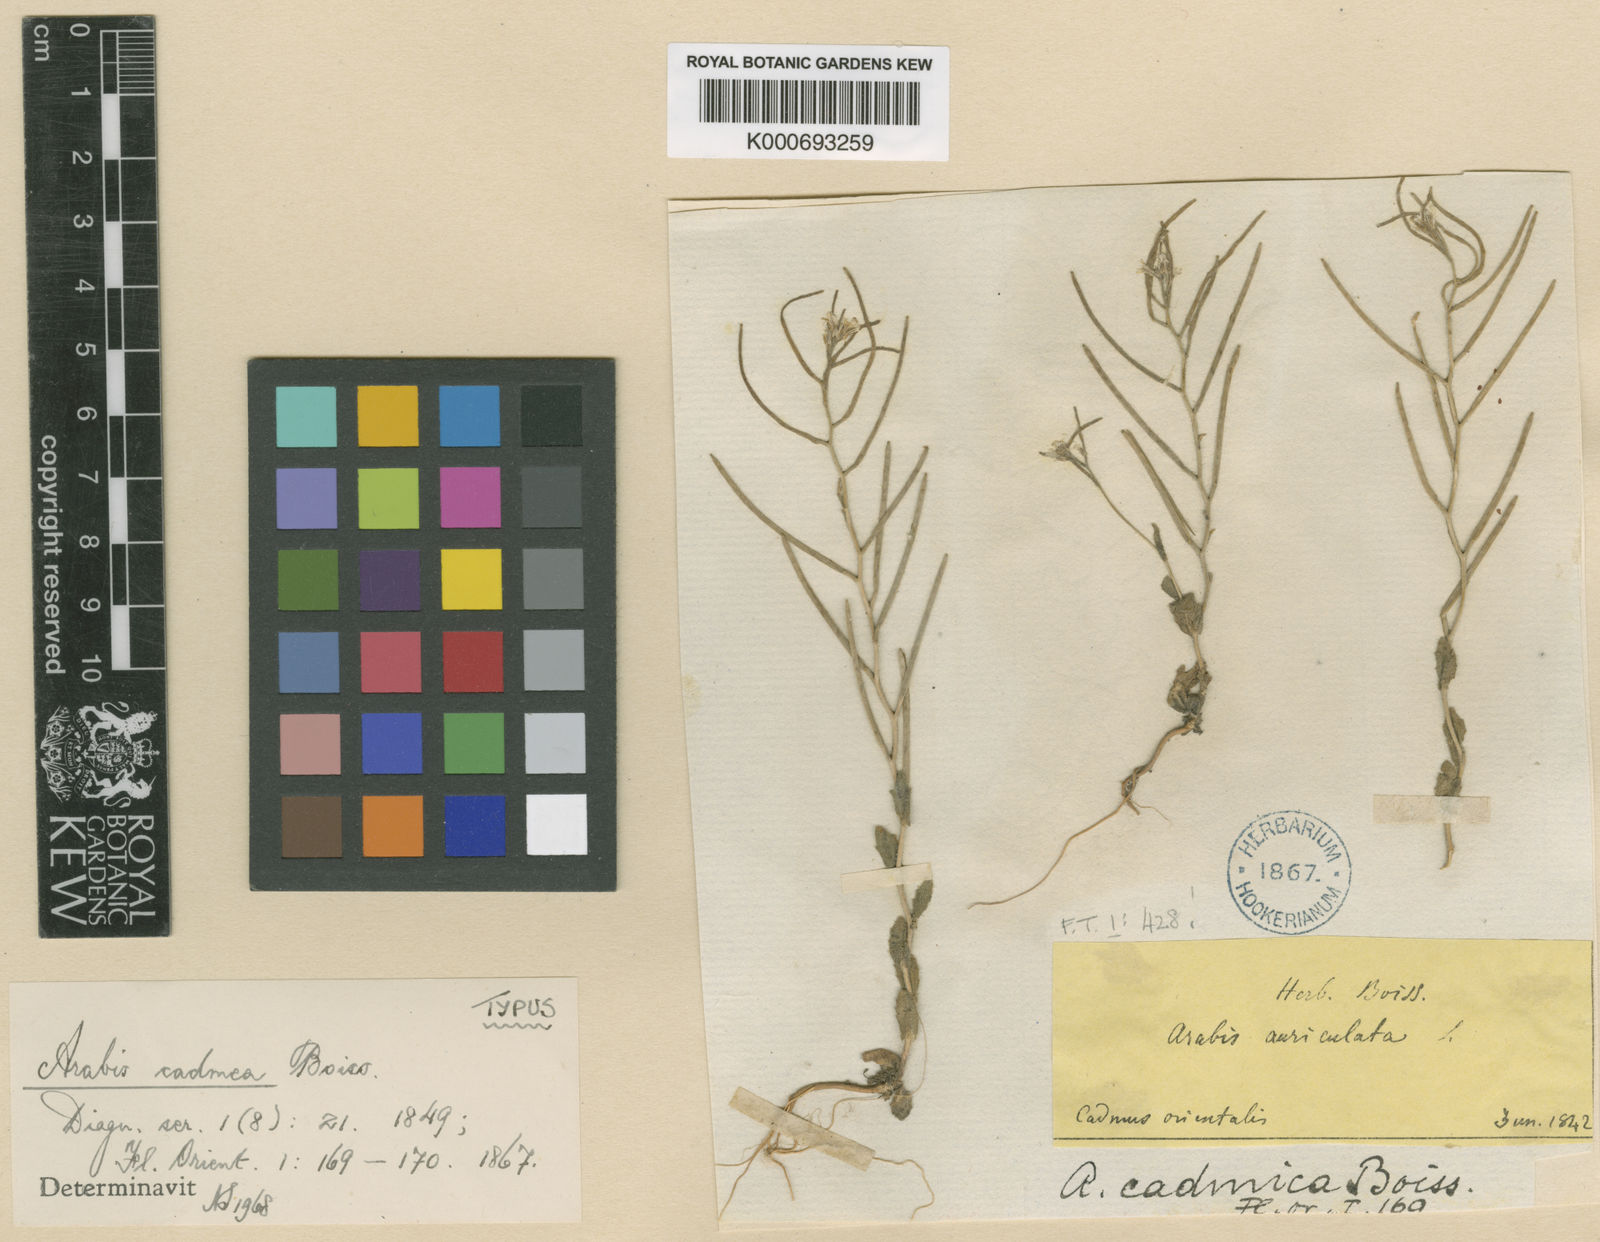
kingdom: Plantae
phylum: Tracheophyta
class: Magnoliopsida
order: Brassicales
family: Brassicaceae
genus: Arabis
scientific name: Arabis nova
